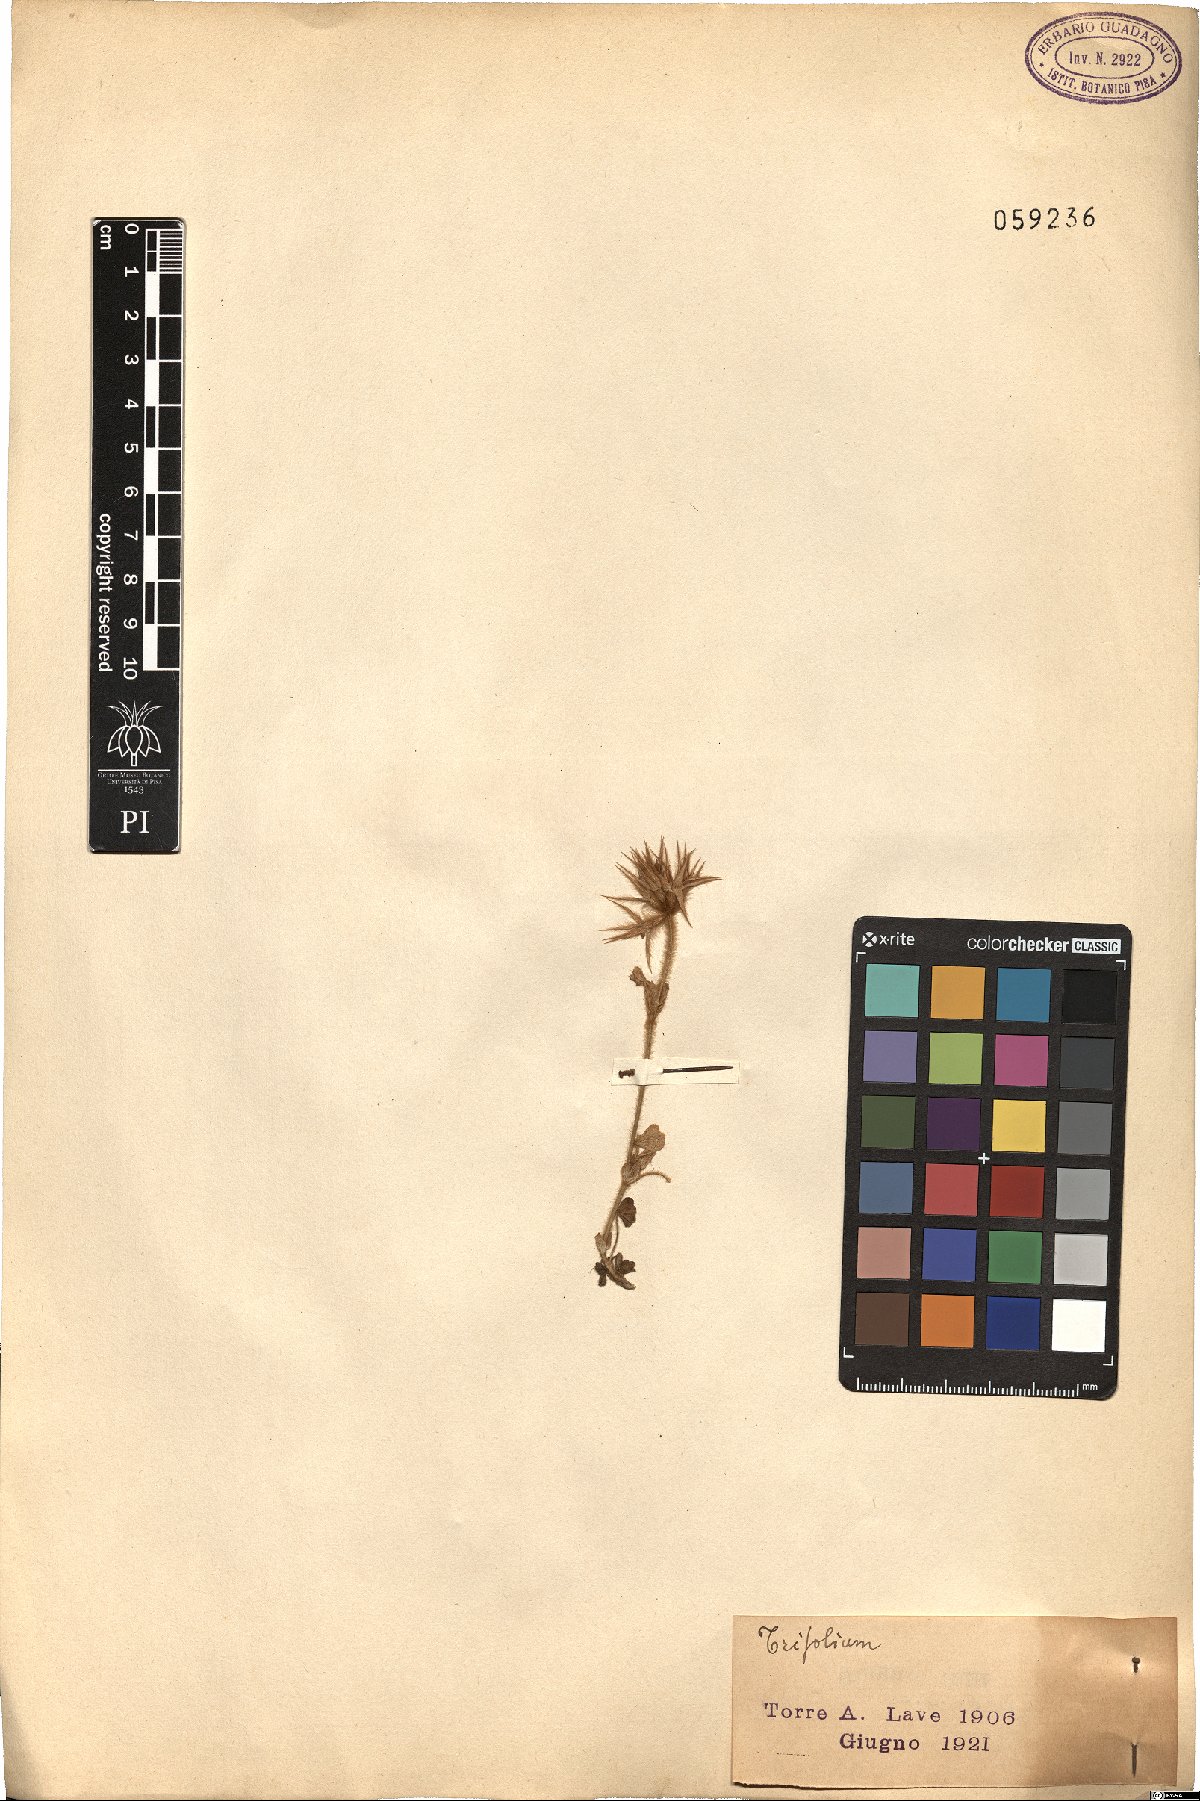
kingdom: Plantae
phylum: Tracheophyta
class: Magnoliopsida
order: Fabales
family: Fabaceae
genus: Trifolium
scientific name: Trifolium
